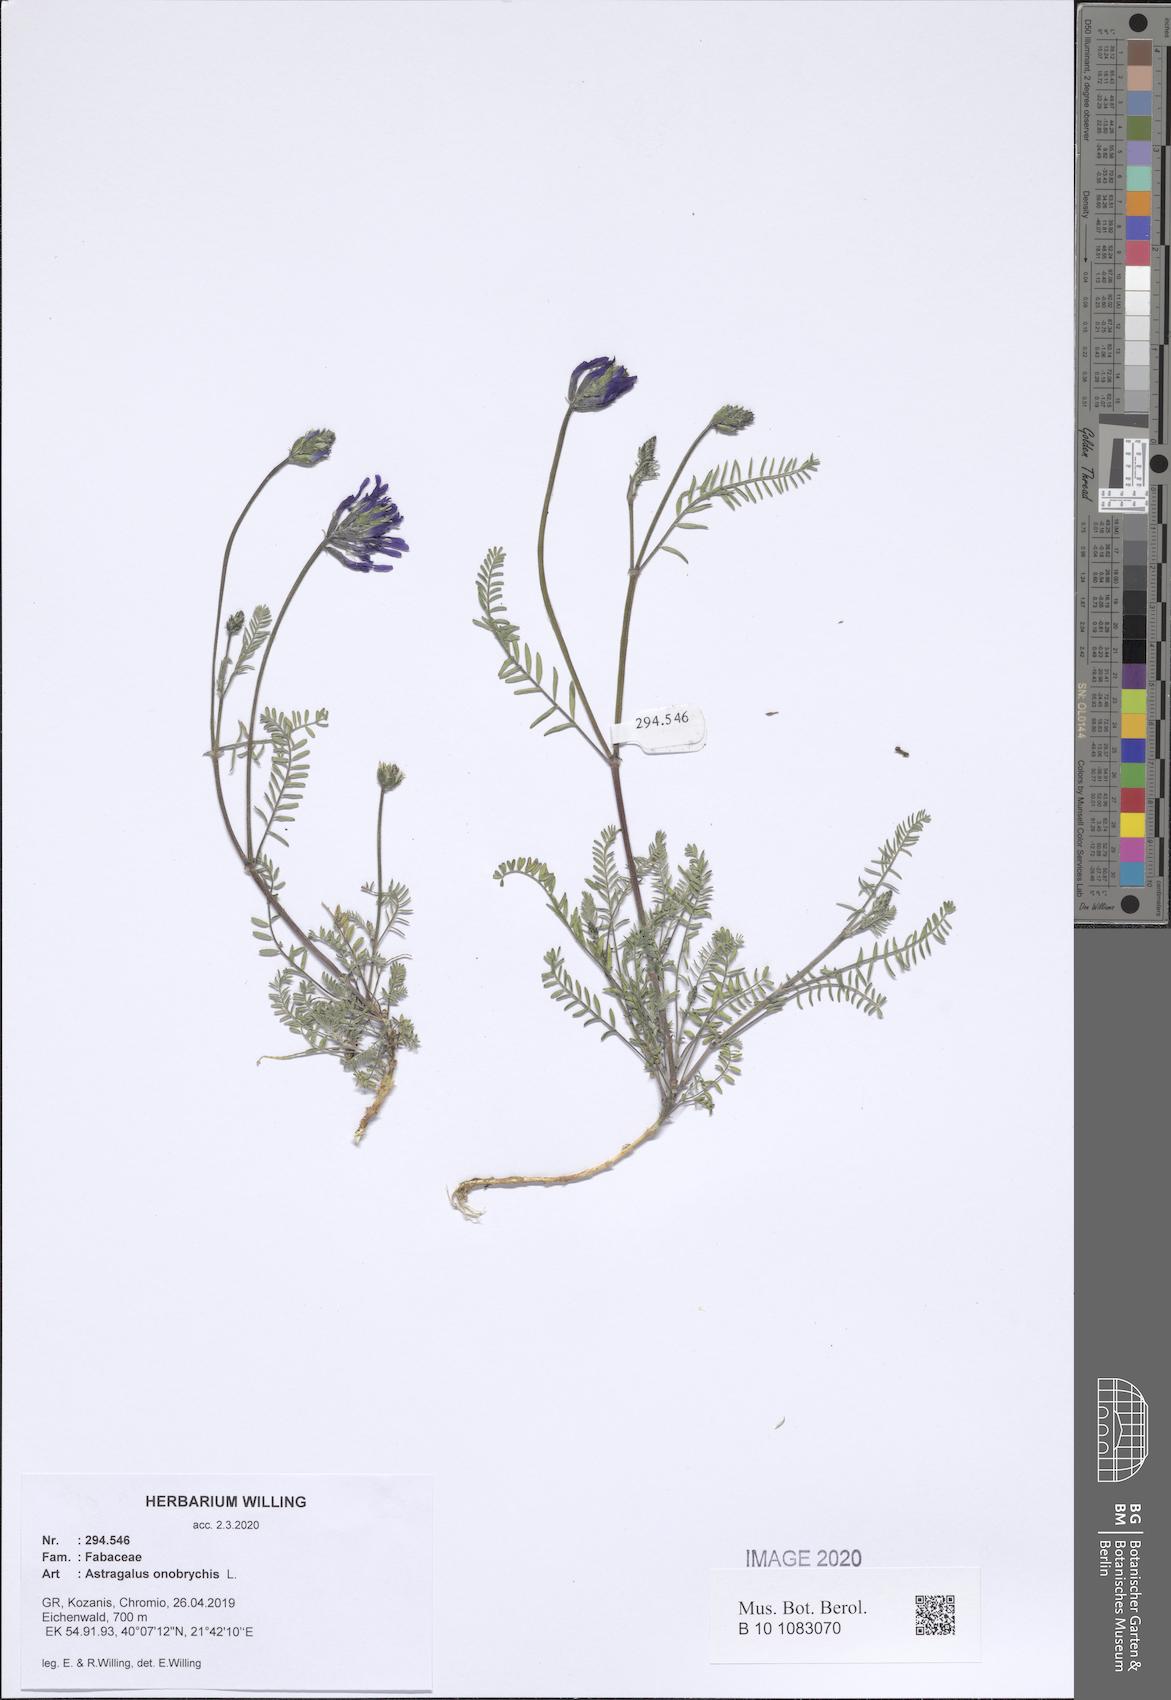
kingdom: Plantae
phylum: Tracheophyta
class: Magnoliopsida
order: Fabales
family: Fabaceae
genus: Astragalus
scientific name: Astragalus onobrychis
